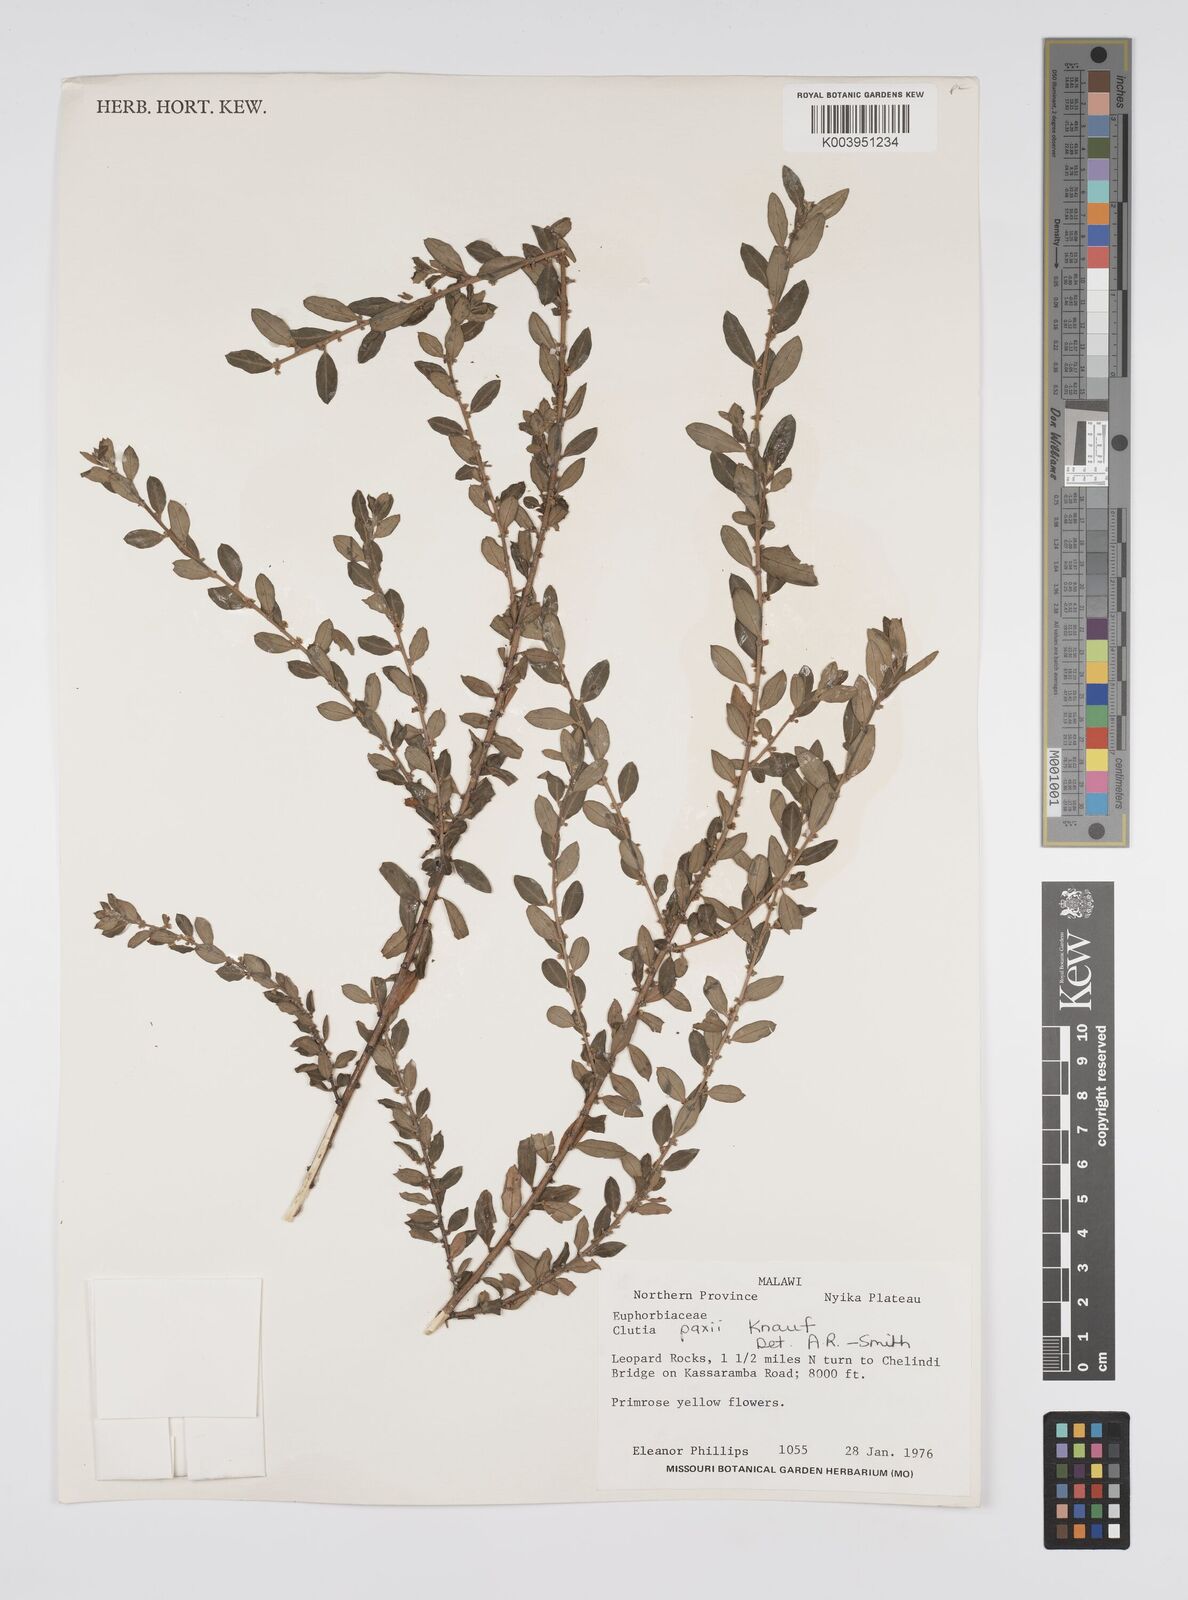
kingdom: Plantae
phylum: Tracheophyta
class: Magnoliopsida
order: Malpighiales
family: Peraceae
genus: Clutia
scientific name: Clutia paxii
